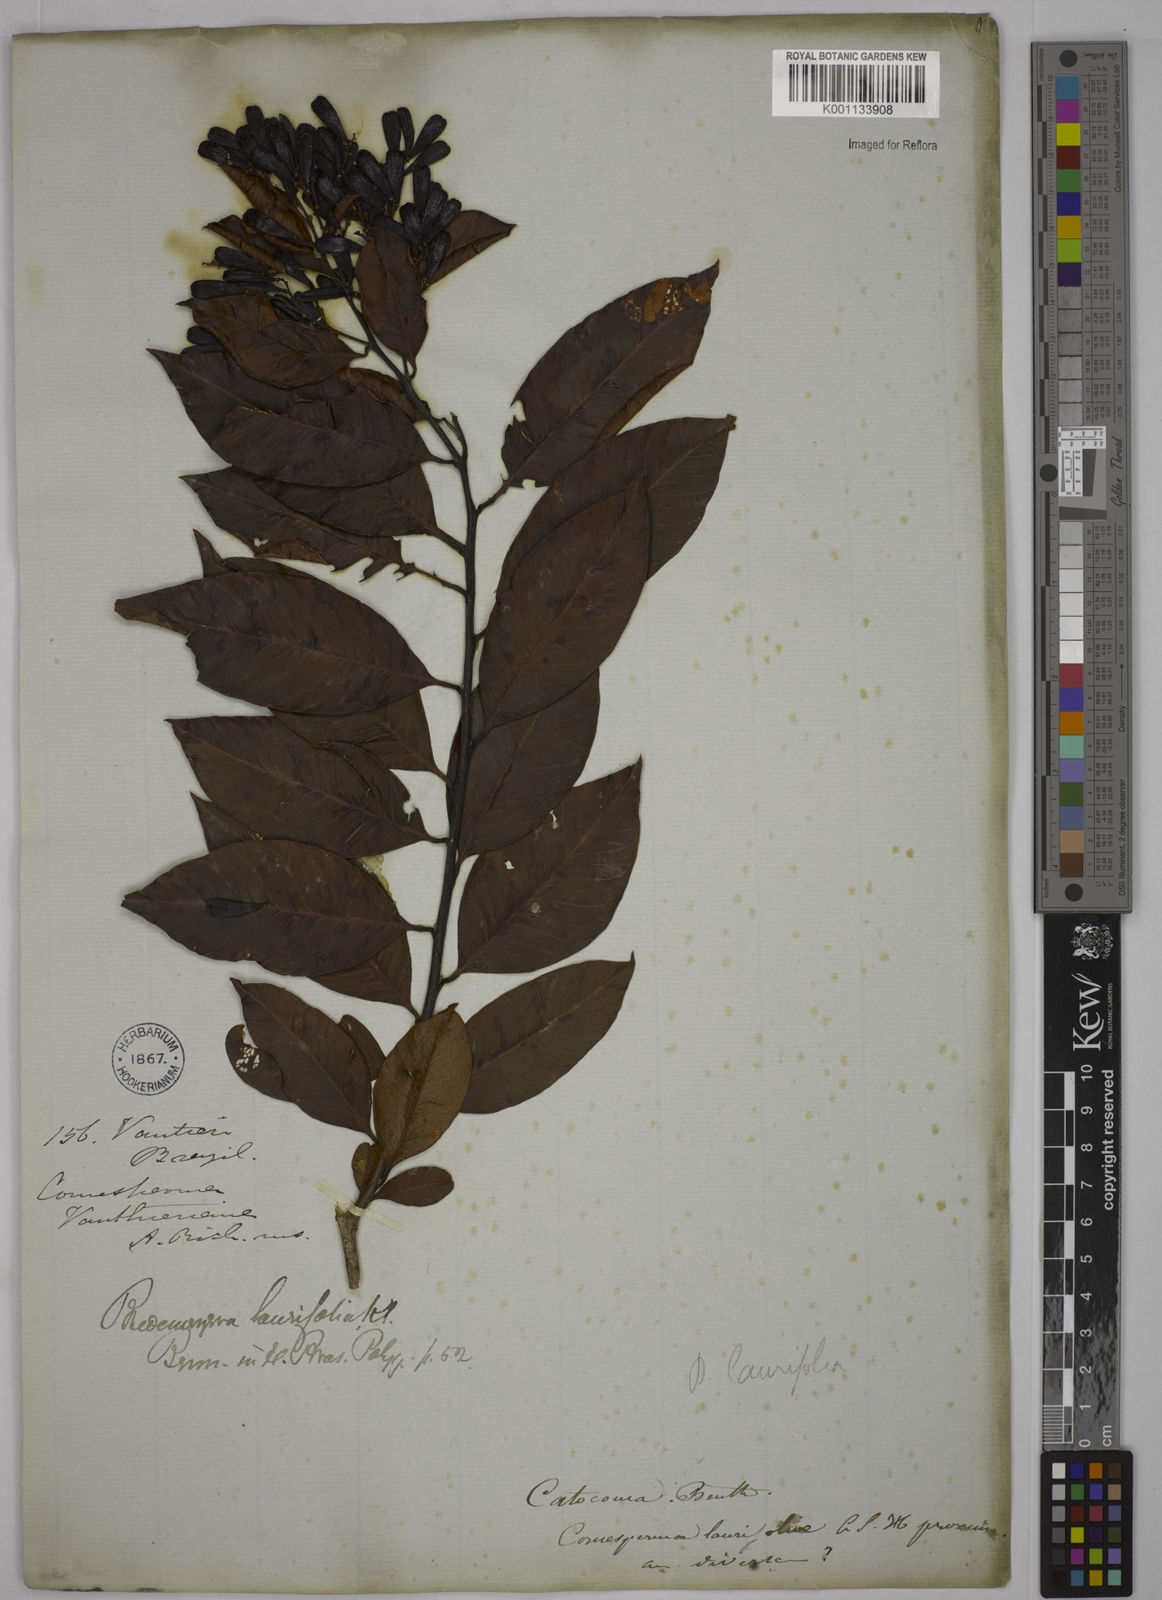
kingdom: Plantae
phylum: Tracheophyta
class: Magnoliopsida
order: Fabales
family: Polygalaceae
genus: Bredemeyera
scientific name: Bredemeyera laurifolia
